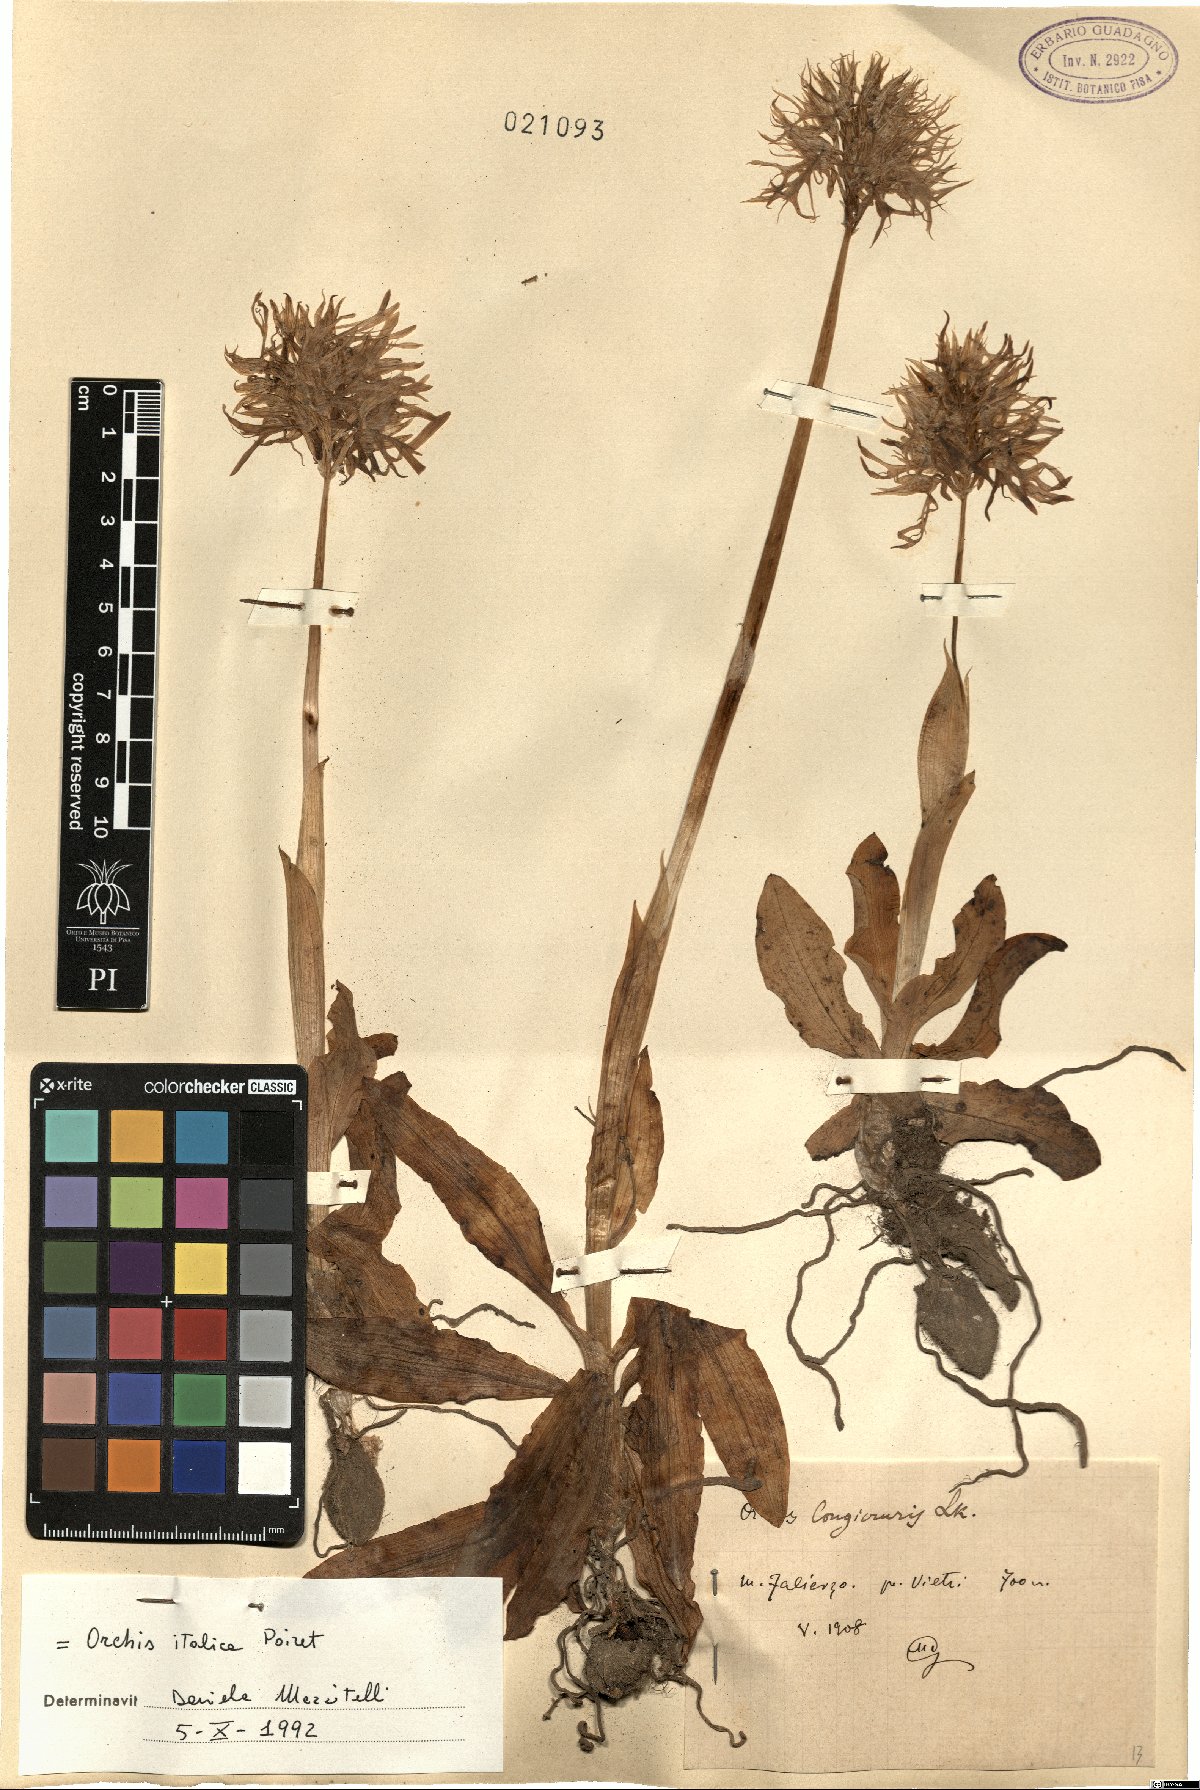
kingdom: Plantae
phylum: Tracheophyta
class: Liliopsida
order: Asparagales
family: Orchidaceae
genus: Orchis
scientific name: Orchis italica
